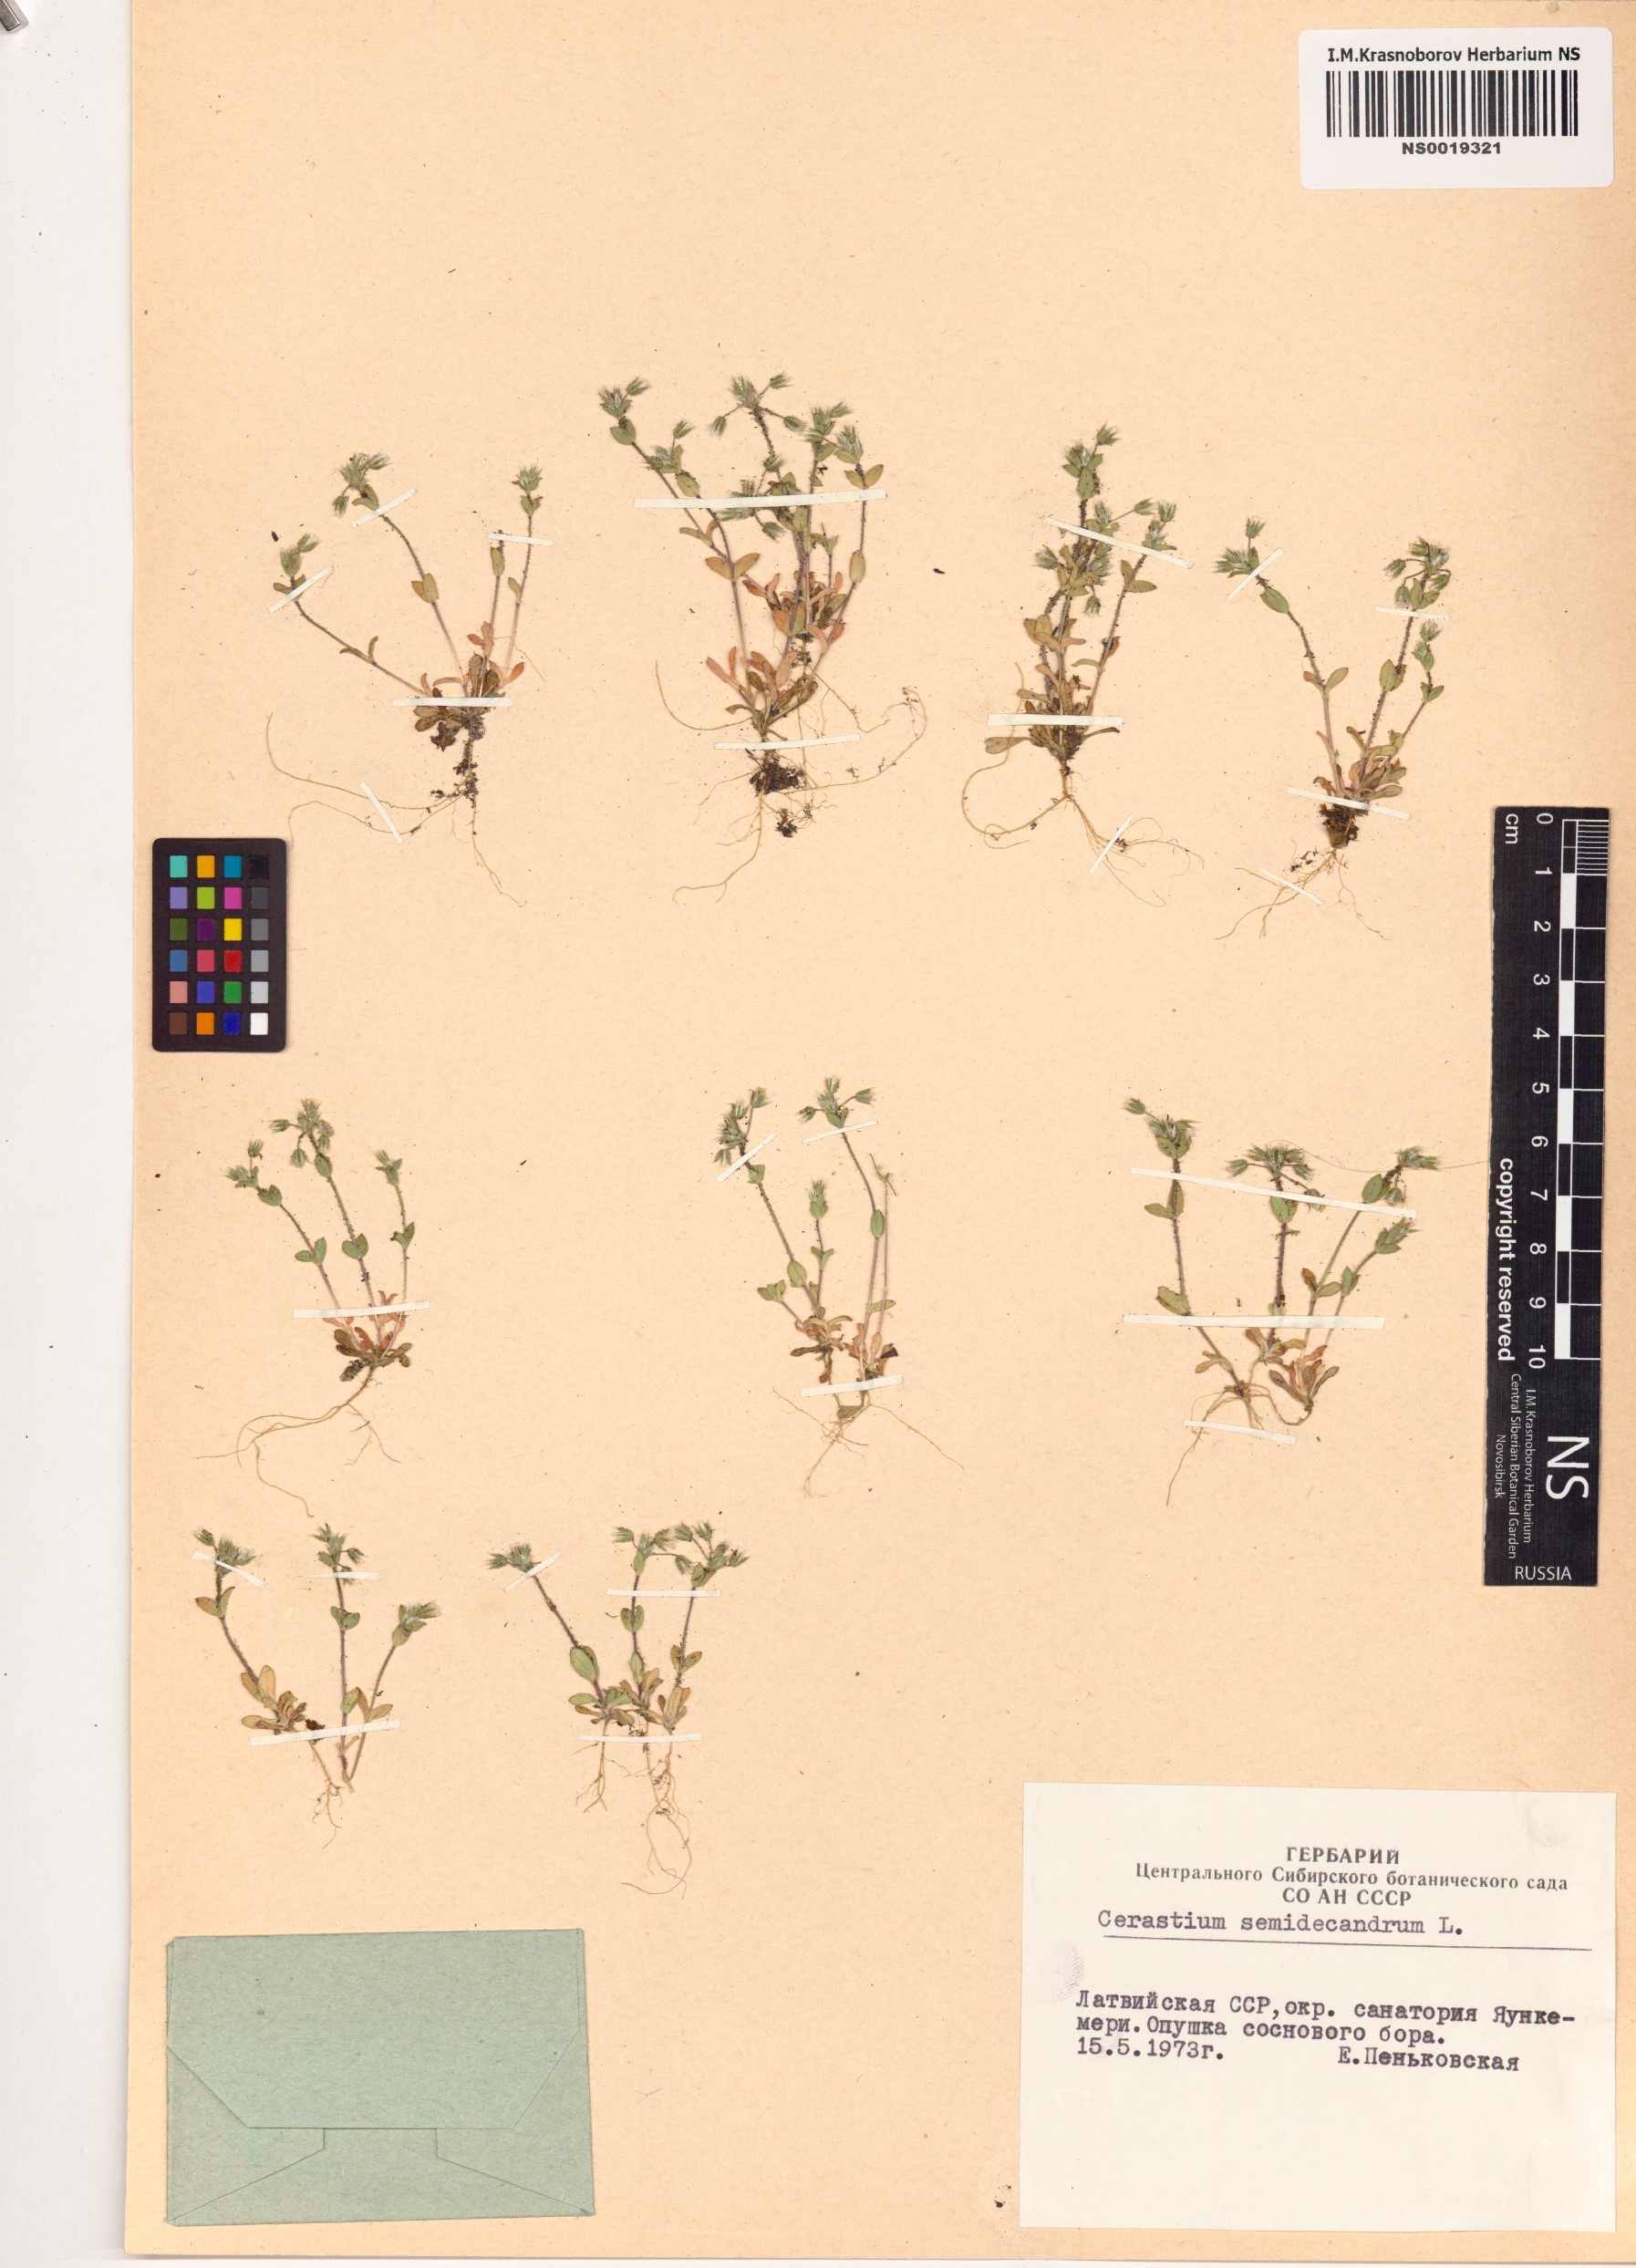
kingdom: Plantae
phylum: Tracheophyta
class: Magnoliopsida
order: Caryophyllales
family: Caryophyllaceae
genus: Cerastium
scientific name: Cerastium semidecandrum
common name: Little mouse-ear
